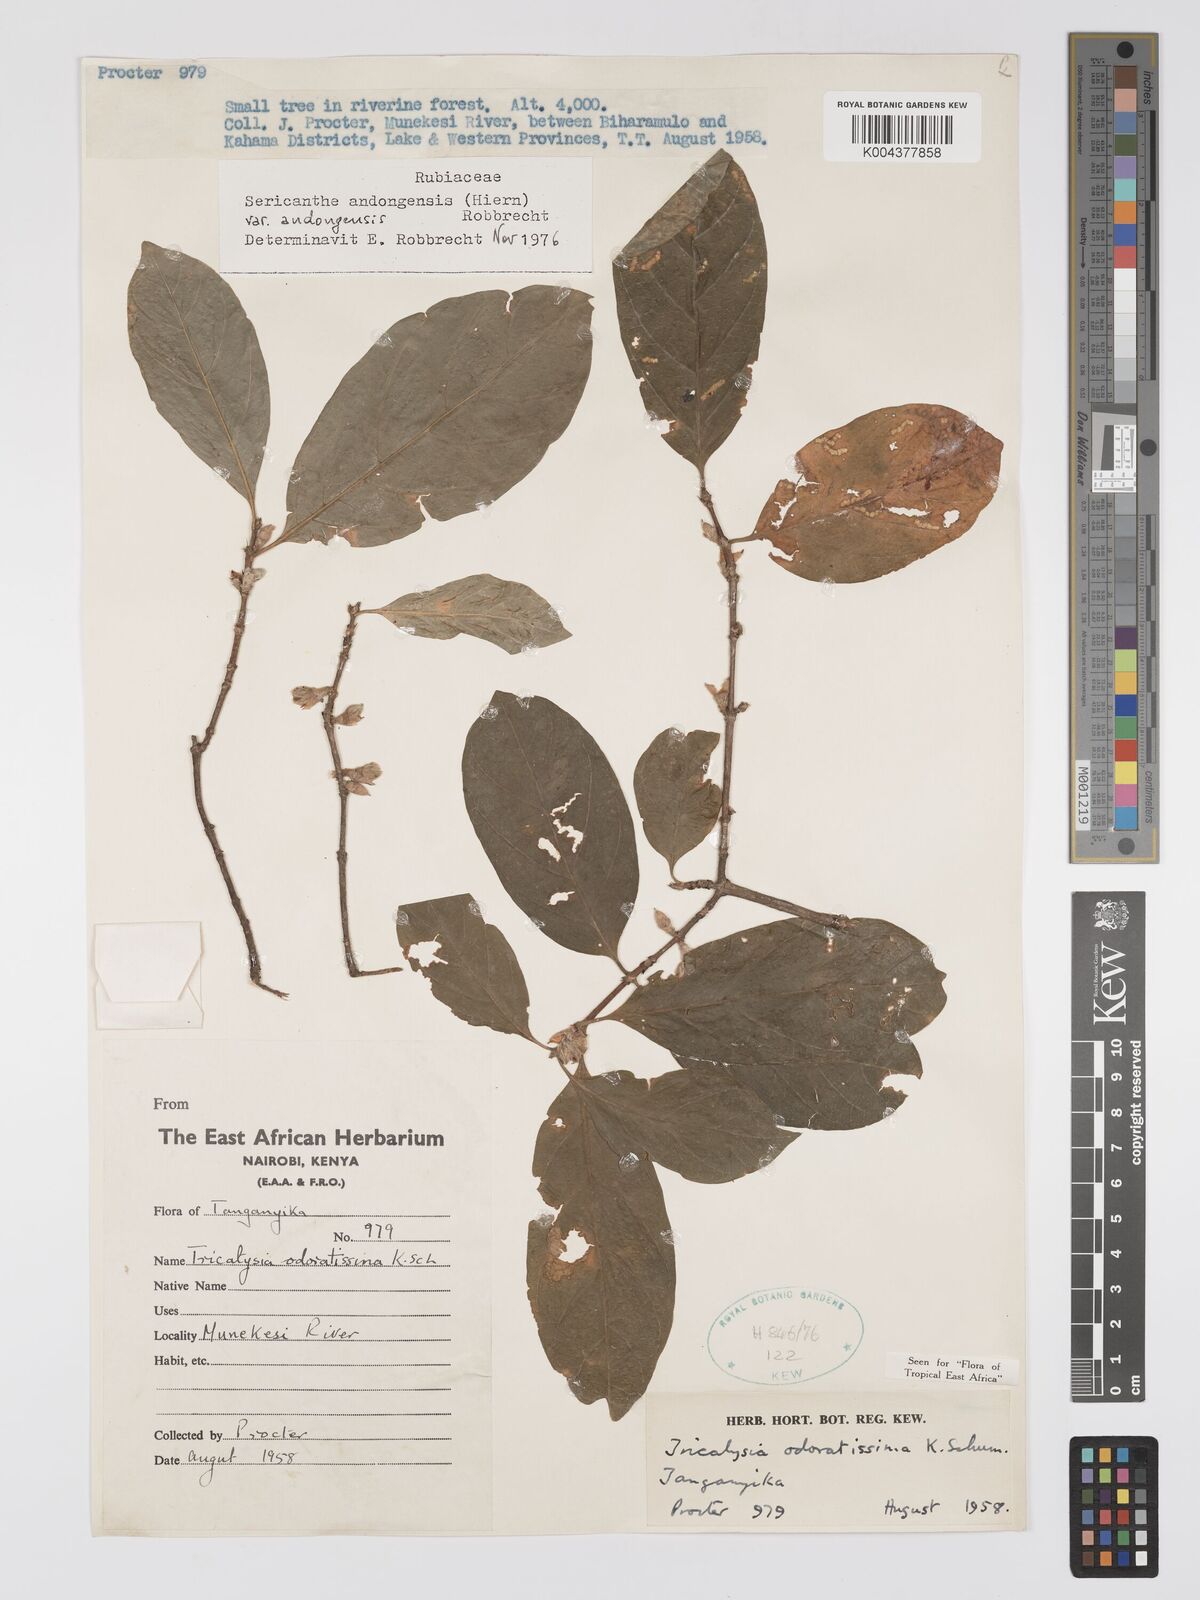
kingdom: Plantae
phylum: Tracheophyta
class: Magnoliopsida
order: Gentianales
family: Rubiaceae
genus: Sericanthe
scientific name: Sericanthe andongensis
